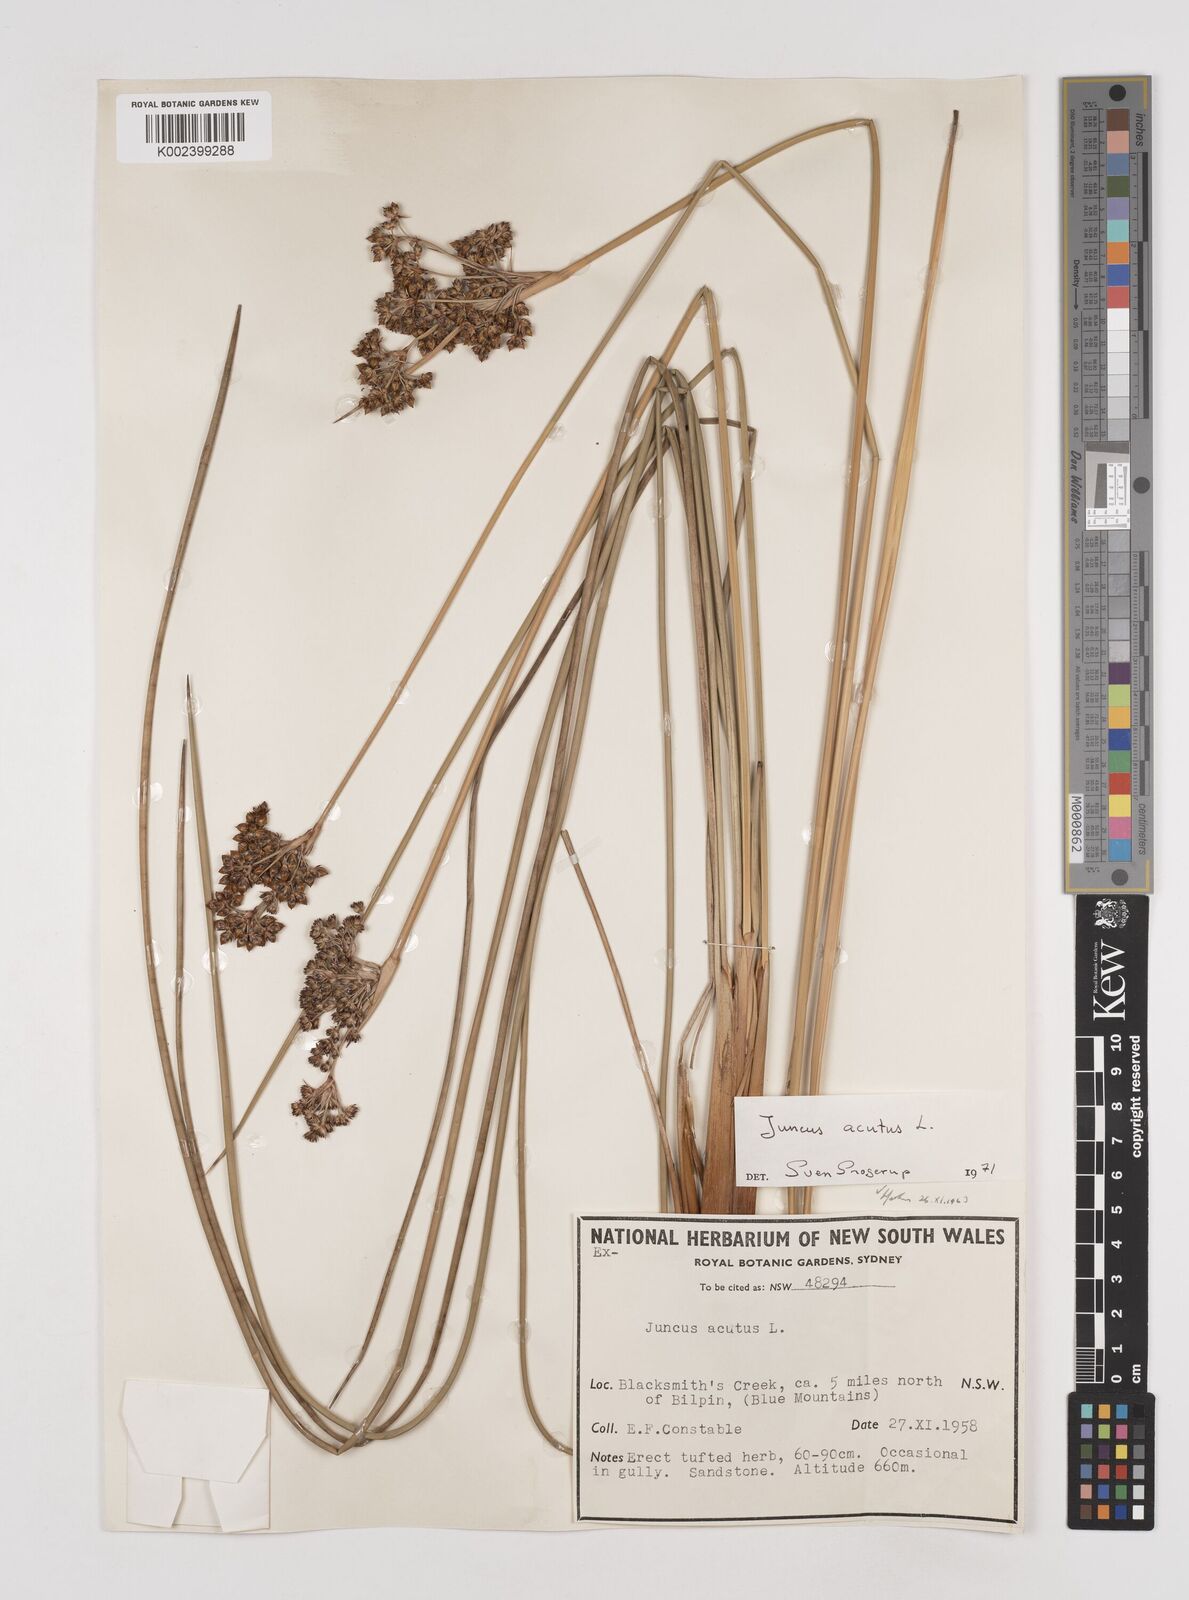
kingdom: Plantae
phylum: Tracheophyta
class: Liliopsida
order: Poales
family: Juncaceae
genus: Juncus
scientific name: Juncus acutus
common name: Sharp rush
